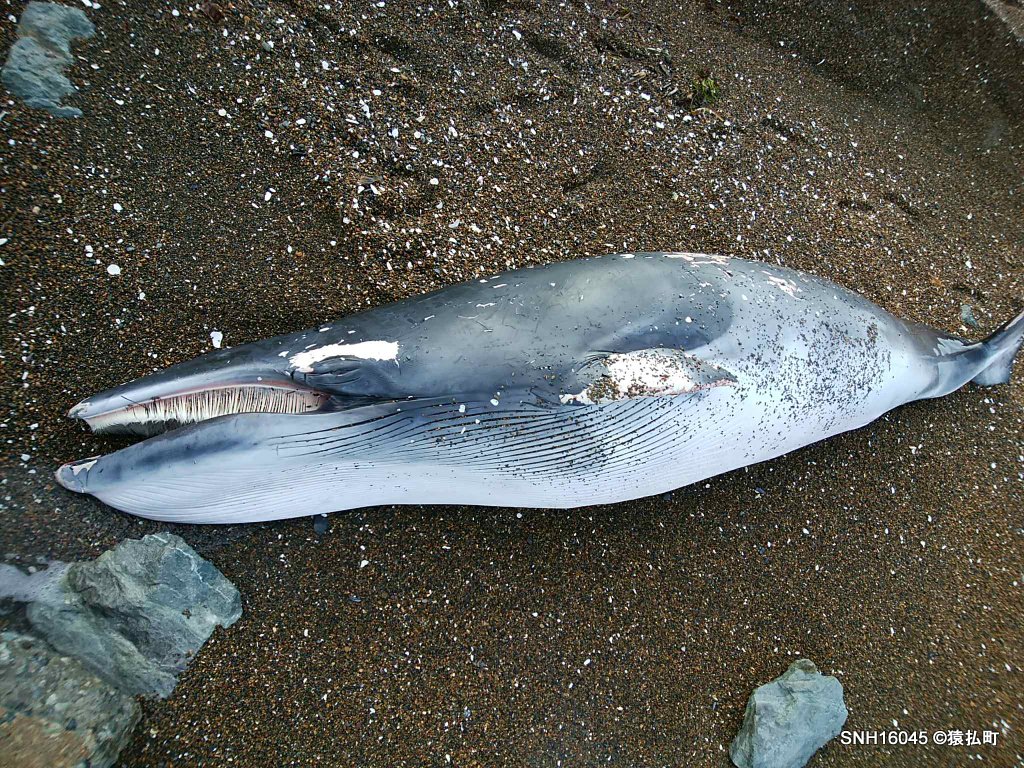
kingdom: Animalia
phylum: Chordata
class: Mammalia
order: Cetacea
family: Balaenopteridae
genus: Balaenoptera
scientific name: Balaenoptera acutorostrata
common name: Minke whale
